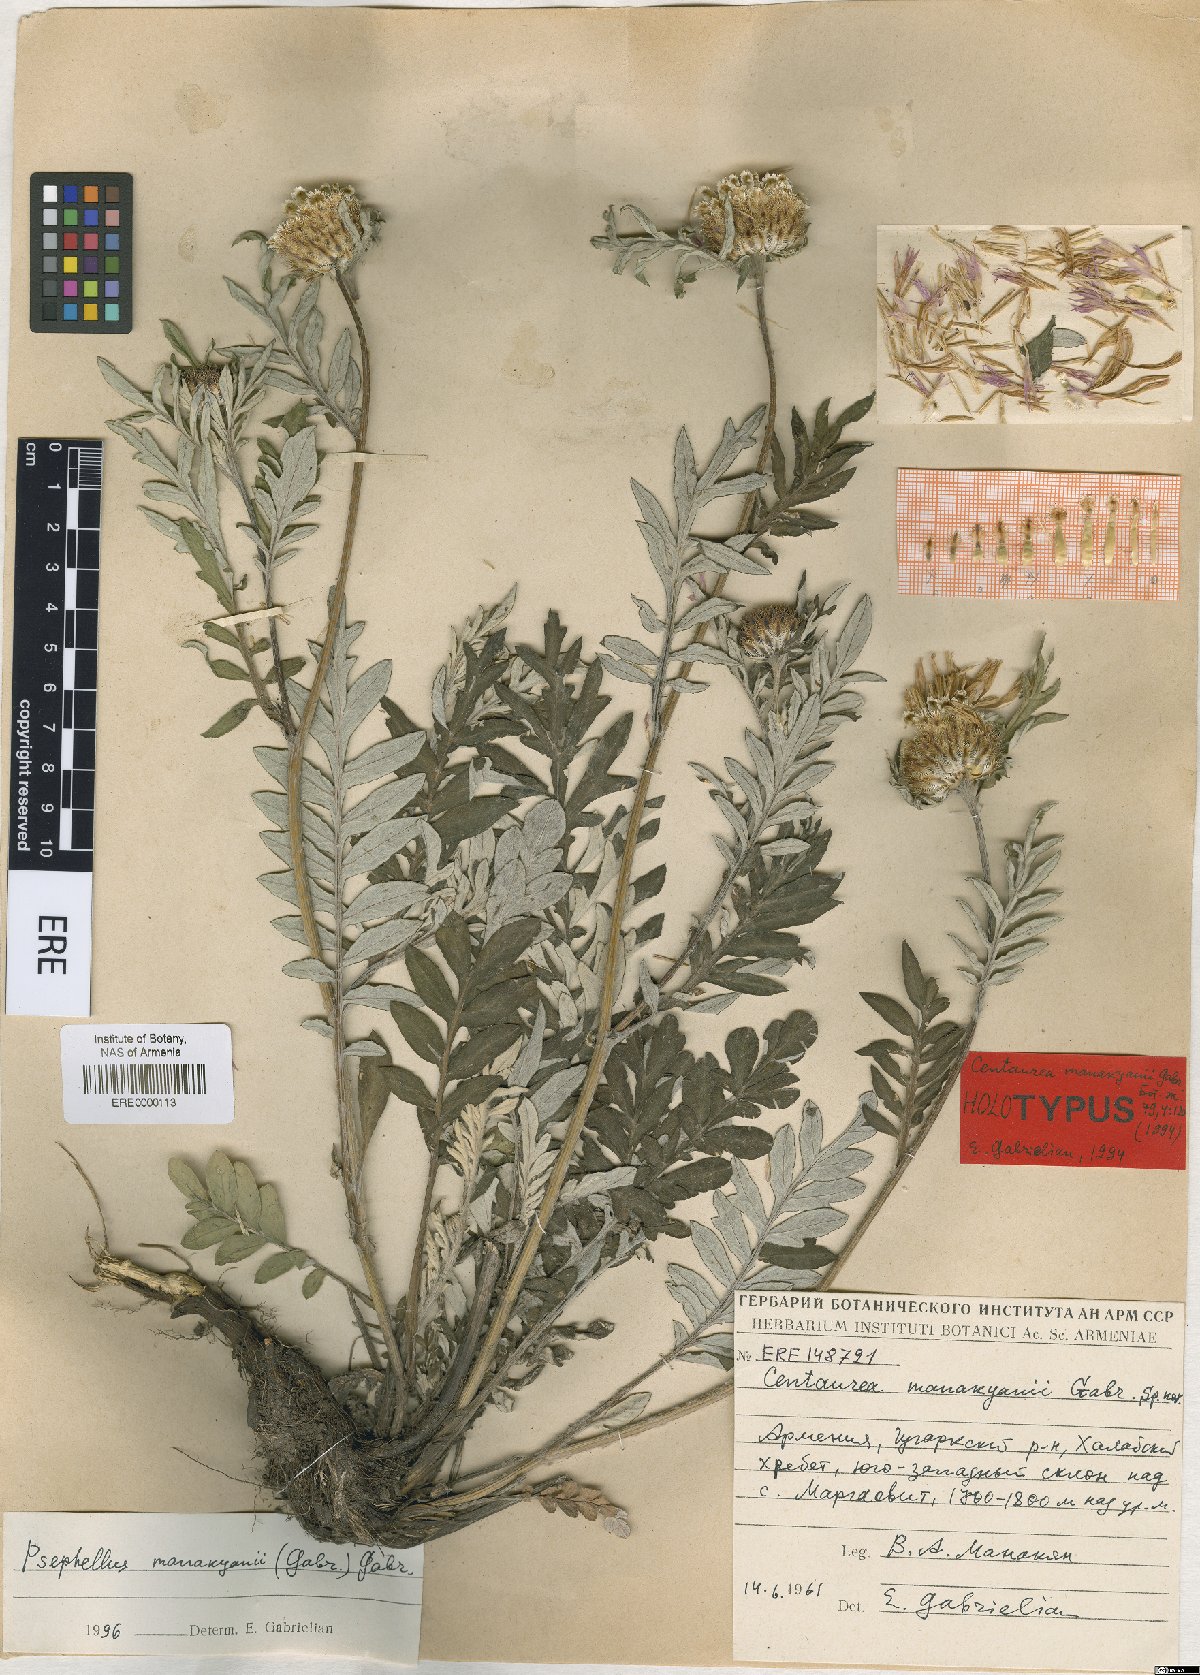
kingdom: Plantae
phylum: Tracheophyta
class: Magnoliopsida
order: Asterales
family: Asteraceae
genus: Psephellus
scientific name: Psephellus manakianii
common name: Manakyan's cornflower
